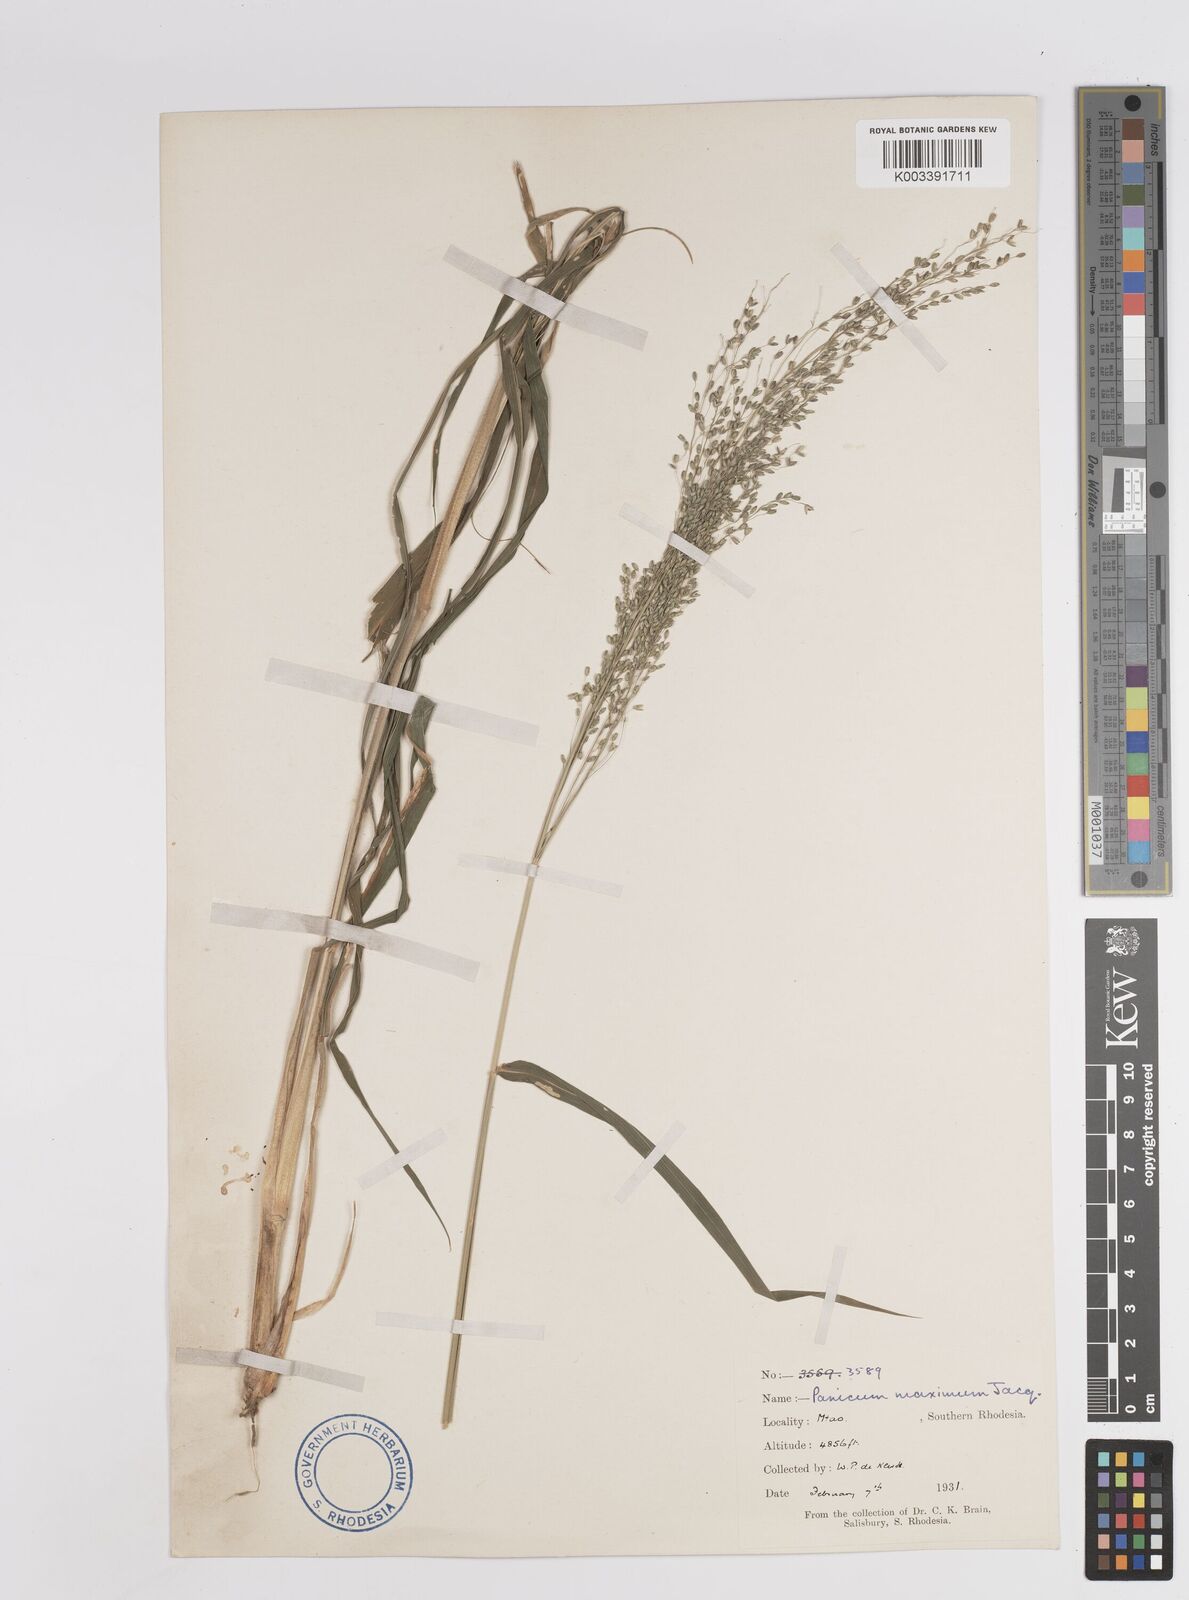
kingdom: Plantae
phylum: Tracheophyta
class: Liliopsida
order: Poales
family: Poaceae
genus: Megathyrsus
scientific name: Megathyrsus maximus
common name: Guineagrass
